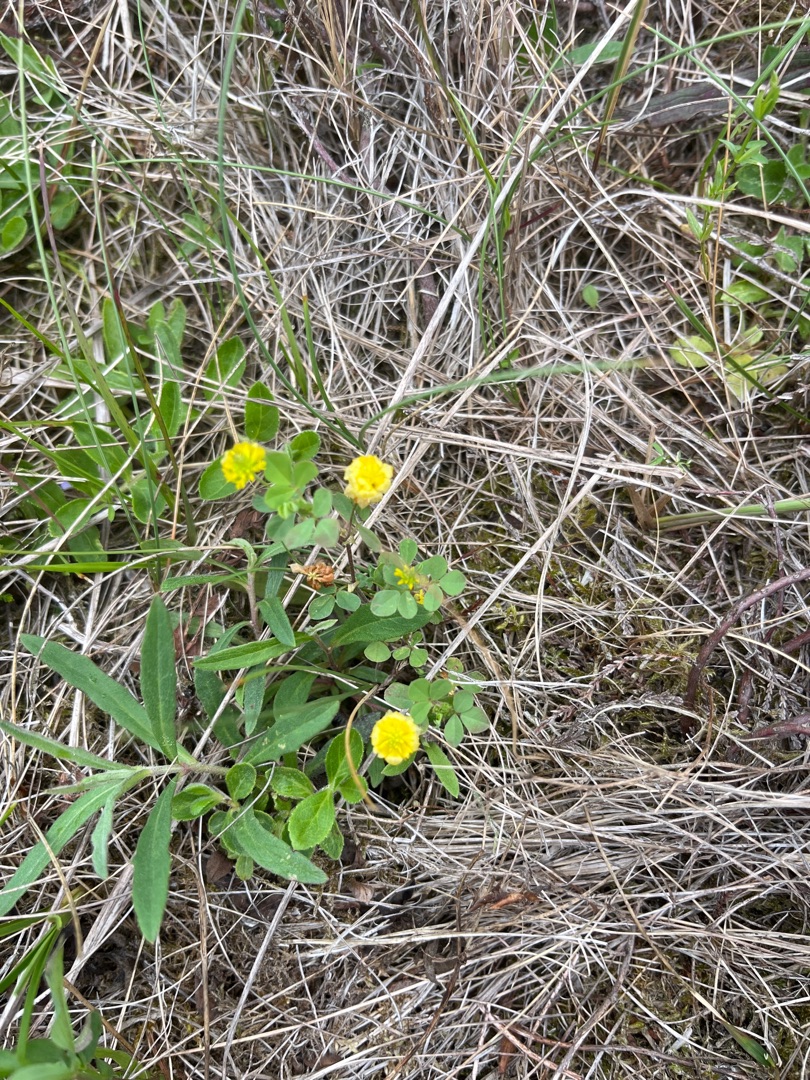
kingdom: Plantae
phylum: Tracheophyta
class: Magnoliopsida
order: Fabales
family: Fabaceae
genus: Trifolium
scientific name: Trifolium campestre
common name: Gul kløver
